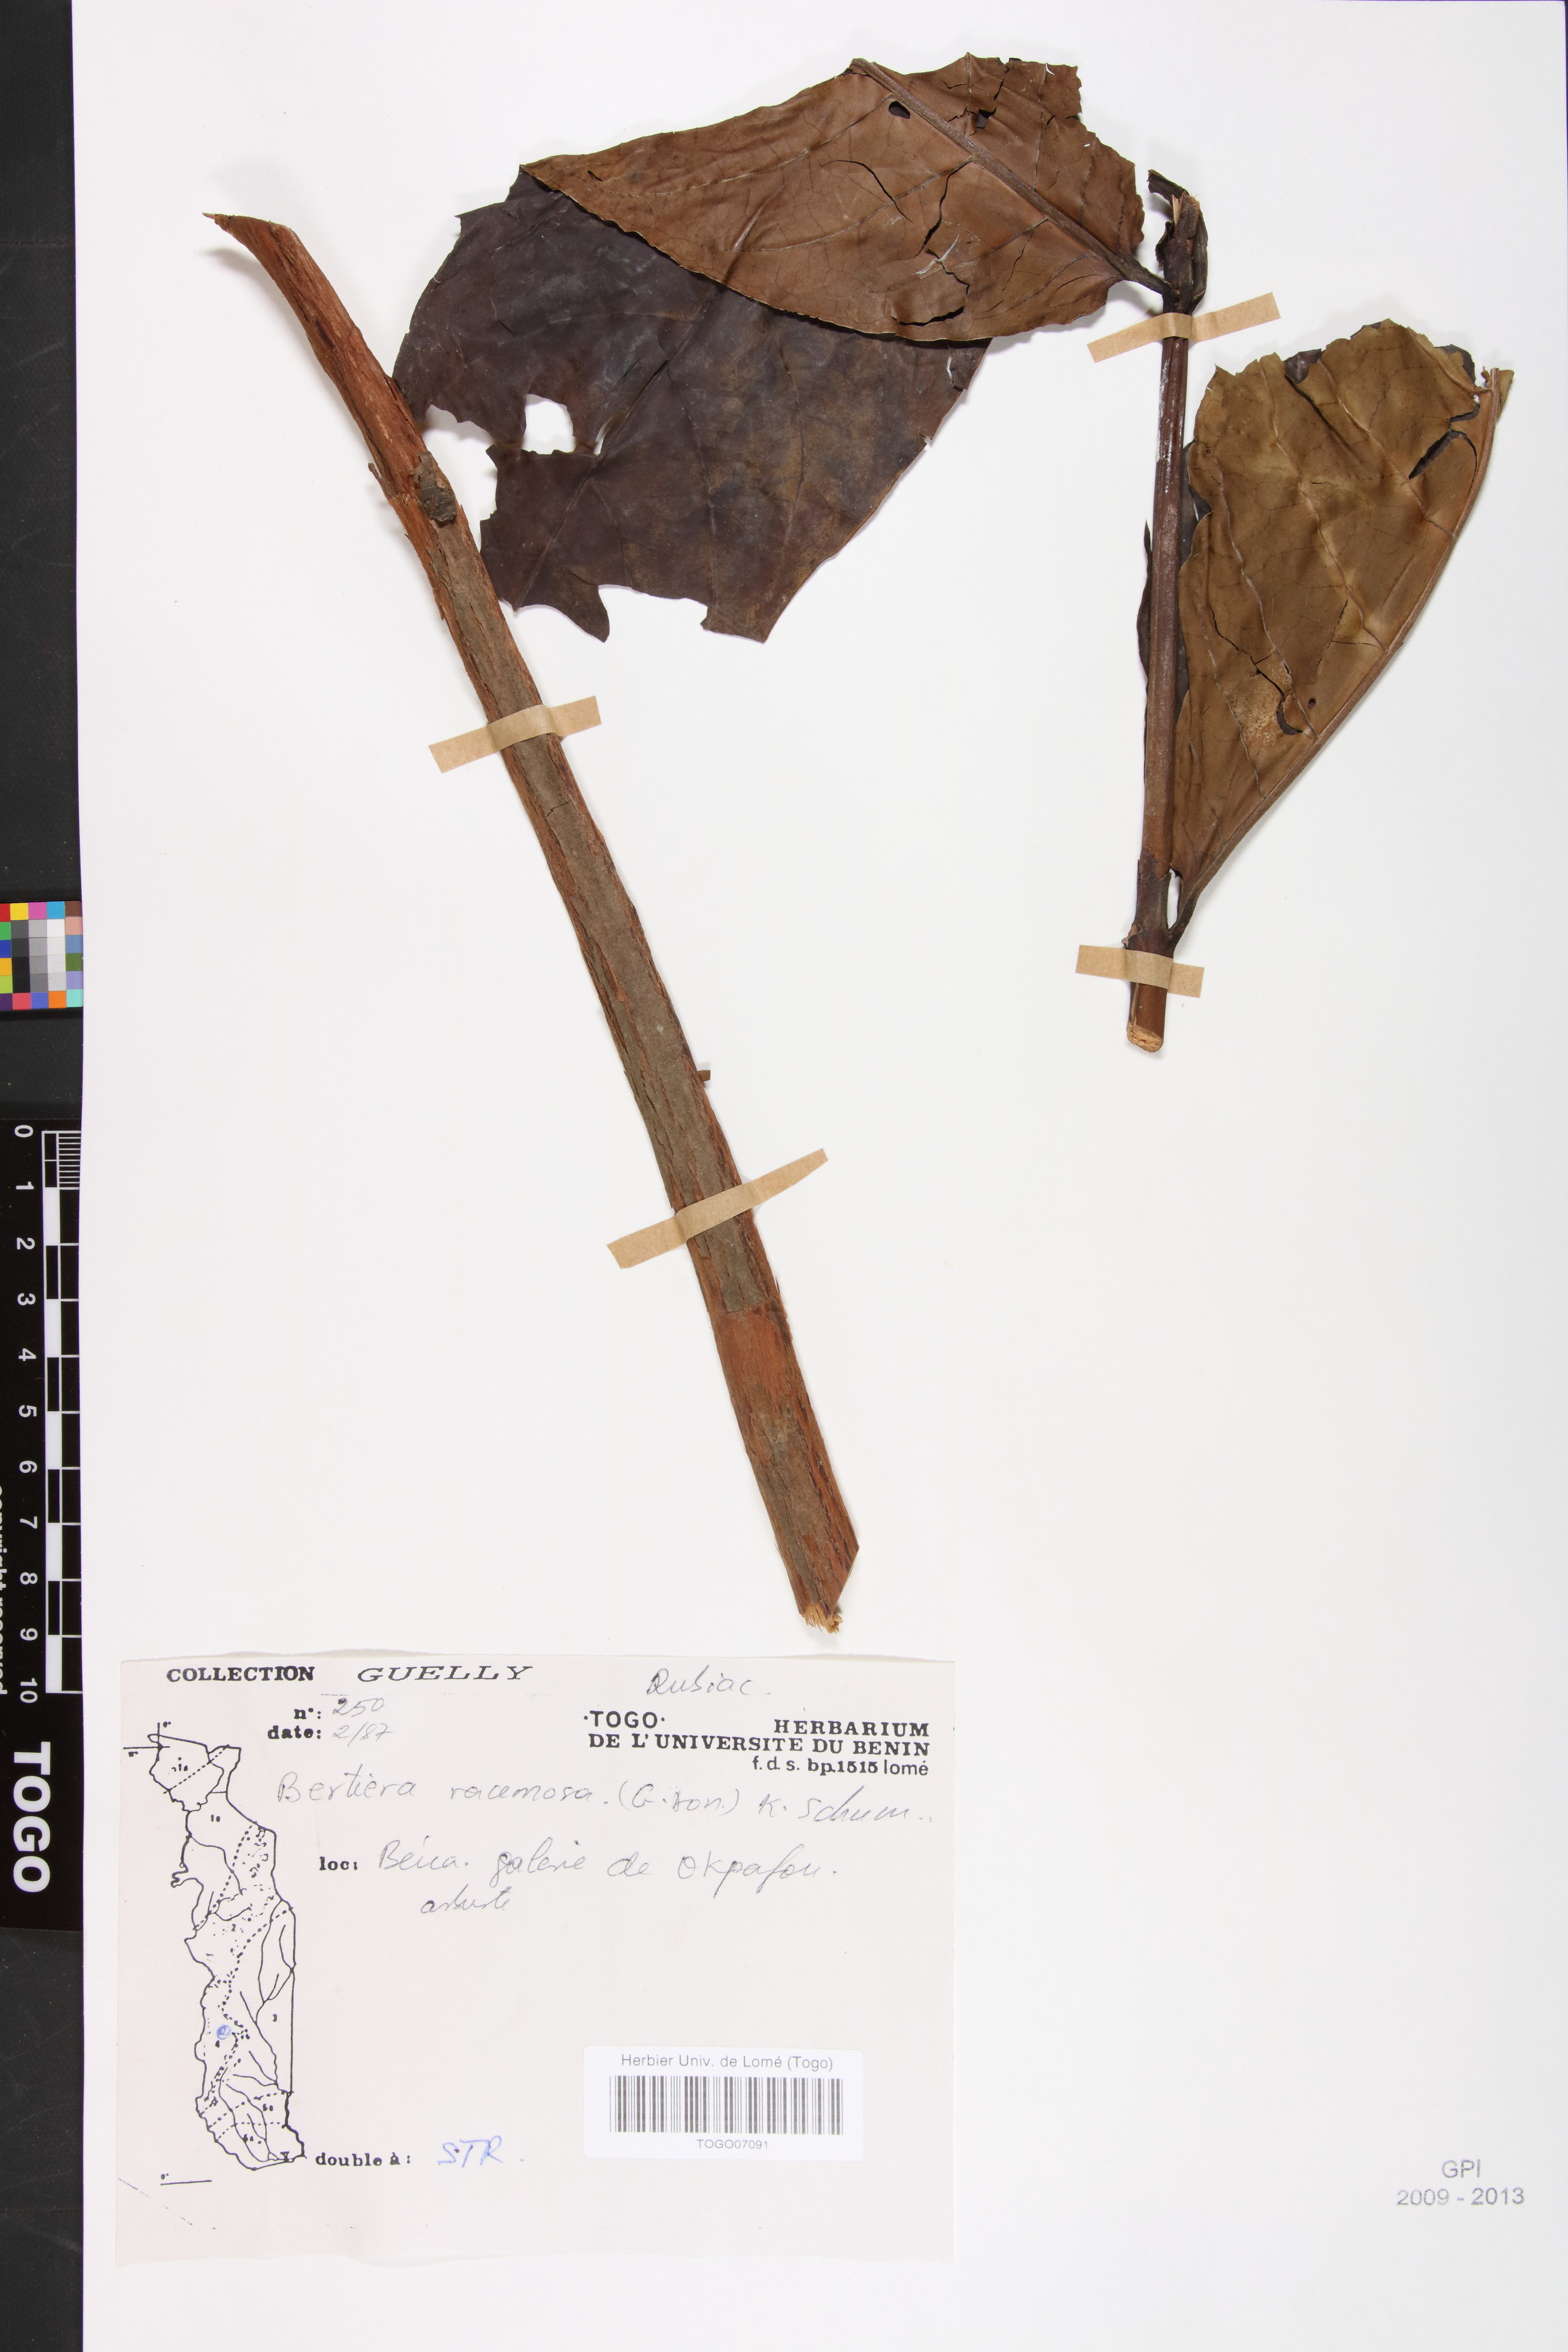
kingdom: Plantae
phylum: Tracheophyta
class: Magnoliopsida
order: Gentianales
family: Rubiaceae
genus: Bertiera
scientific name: Bertiera racemosa
